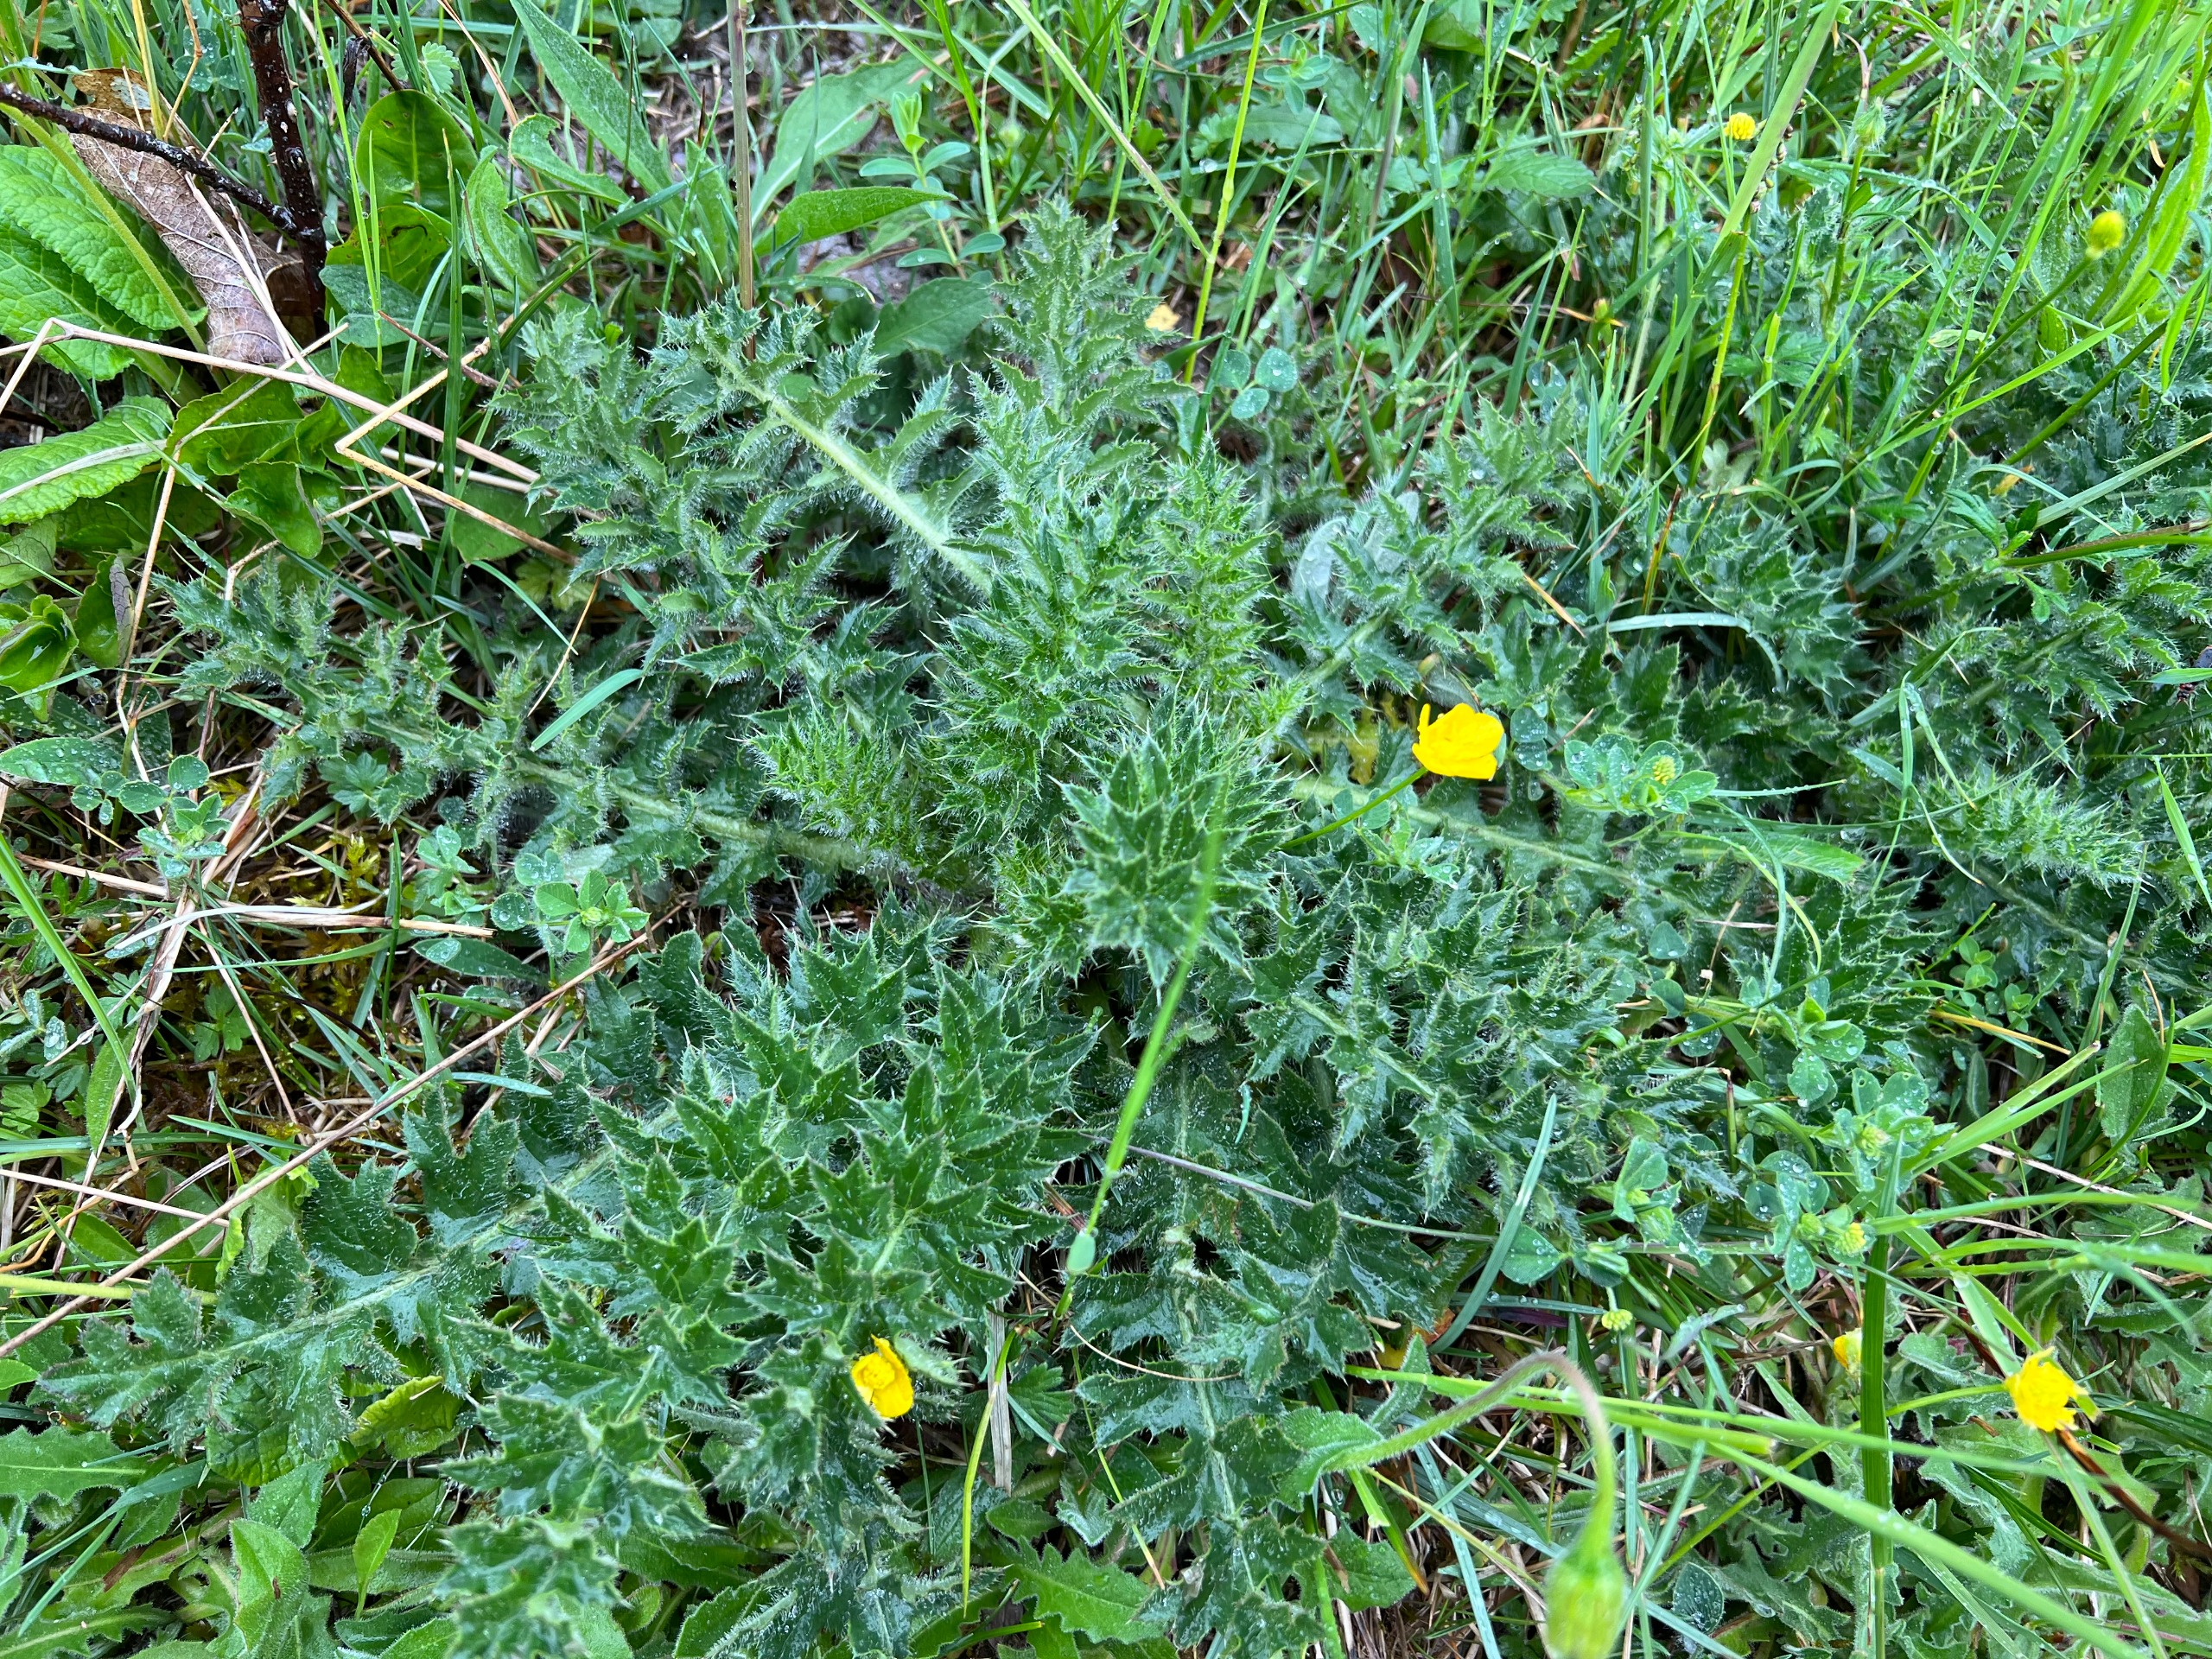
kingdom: Plantae
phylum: Tracheophyta
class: Magnoliopsida
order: Asterales
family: Asteraceae
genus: Cirsium
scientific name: Cirsium acaule
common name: Lav tidsel
